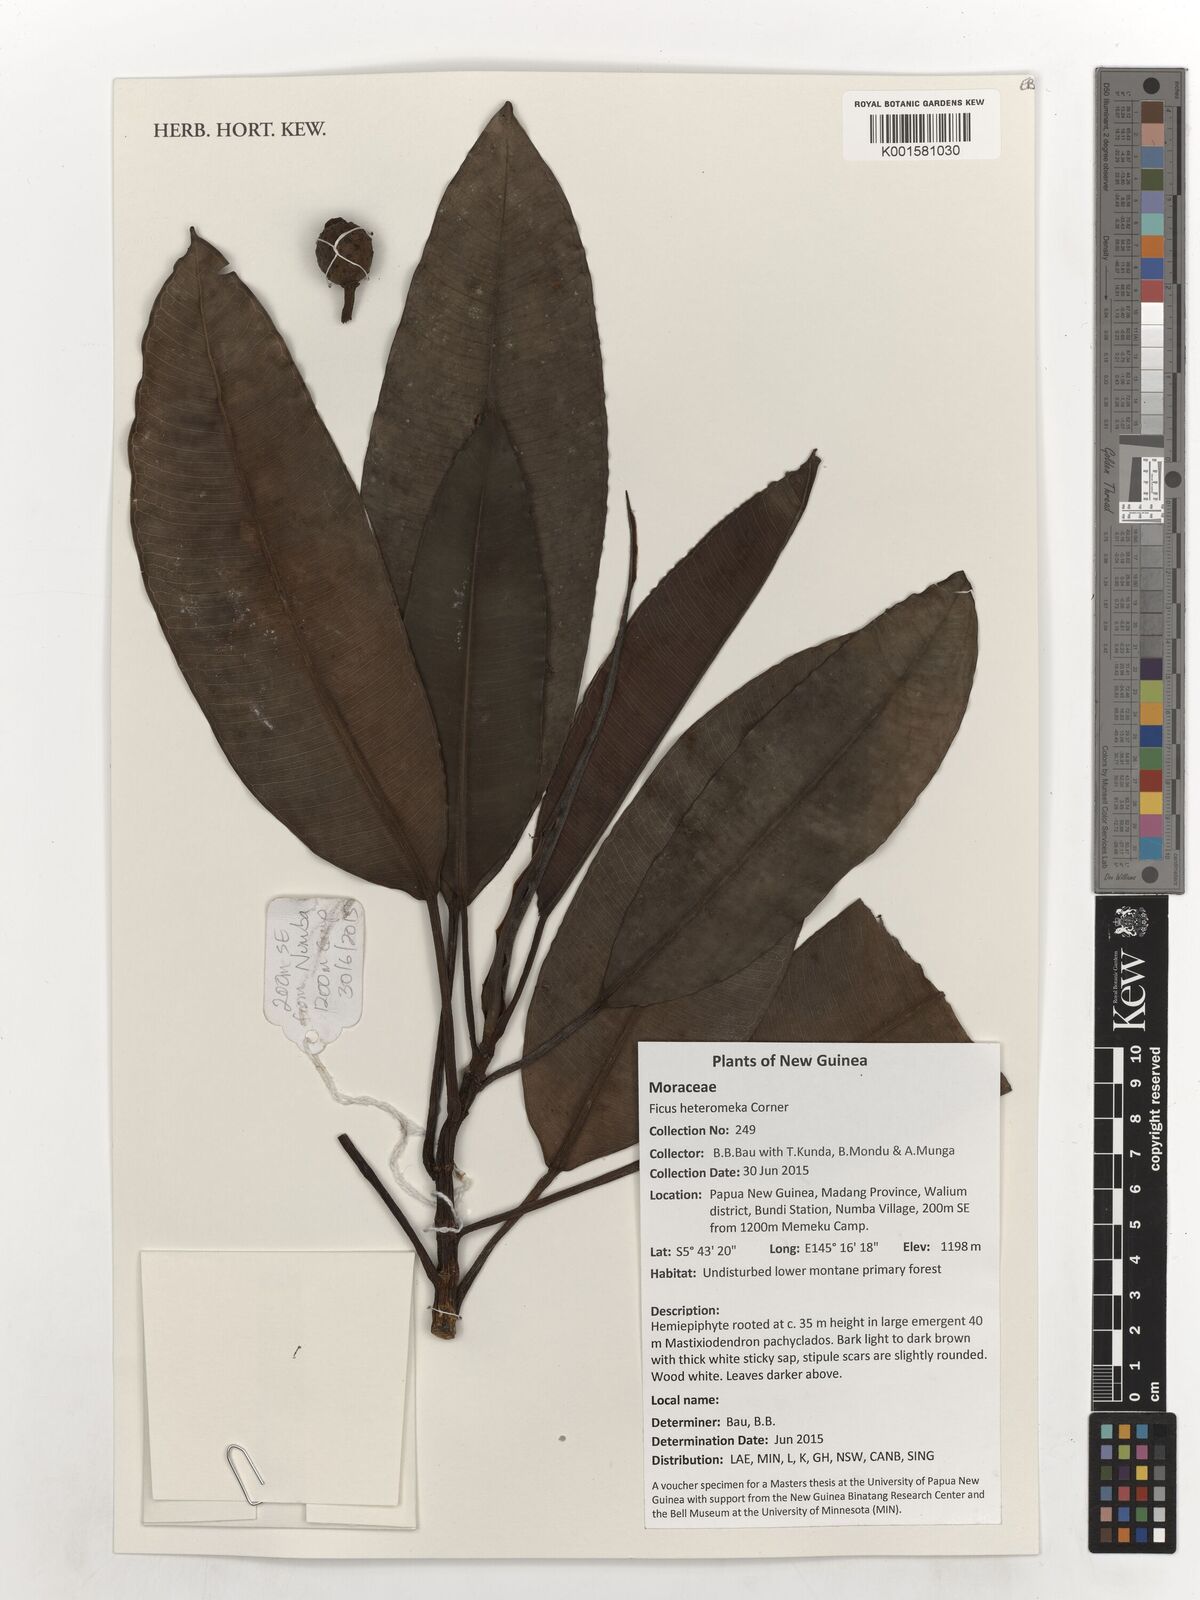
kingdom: Plantae
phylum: Tracheophyta
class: Magnoliopsida
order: Rosales
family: Moraceae
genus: Ficus
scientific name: Ficus hesperidiiformis
